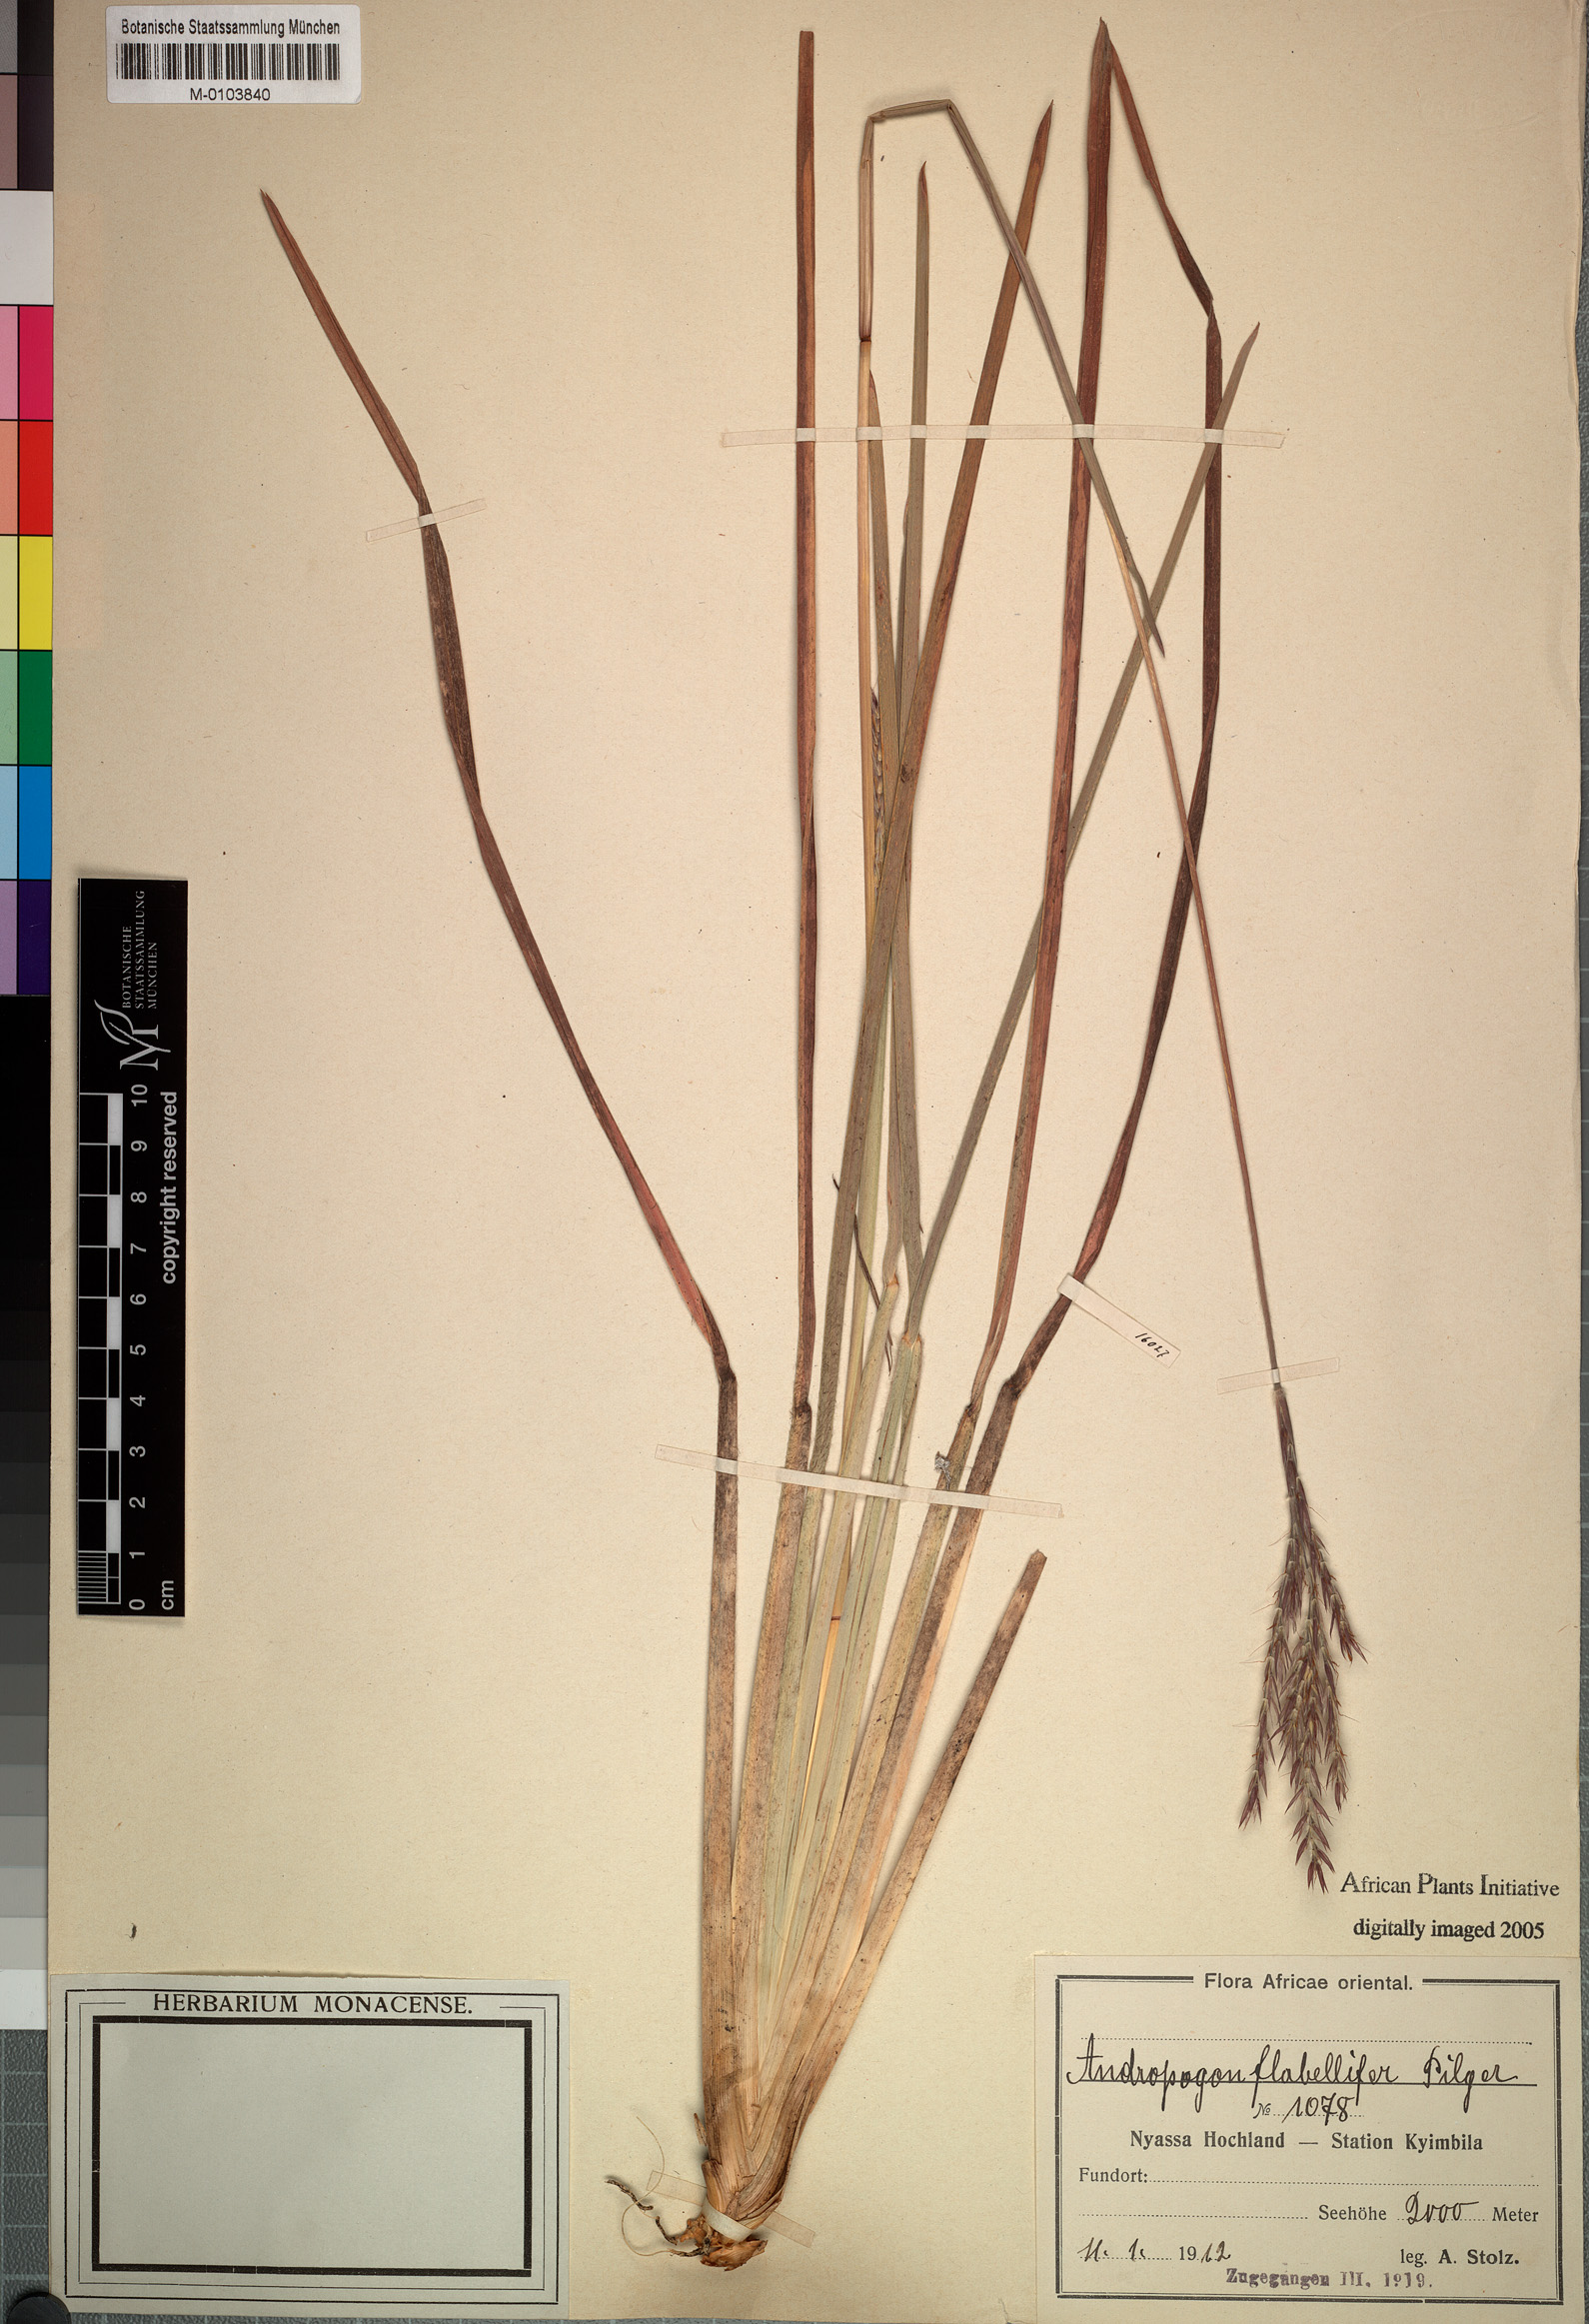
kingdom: Plantae
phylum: Tracheophyta
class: Liliopsida
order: Poales
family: Poaceae
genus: Andropogon
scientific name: Andropogon mannii
